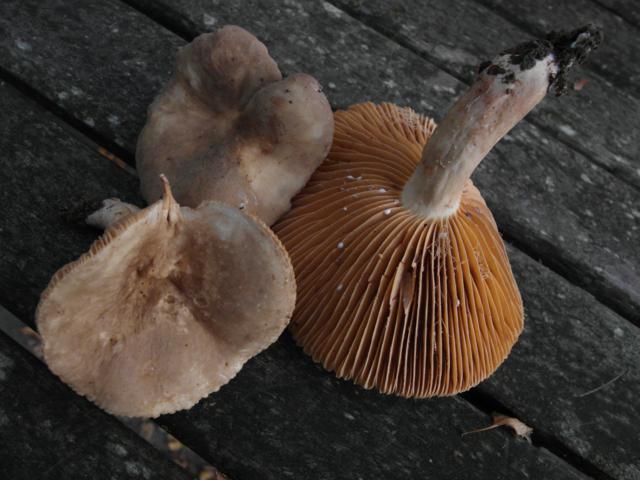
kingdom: Fungi
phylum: Basidiomycota
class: Agaricomycetes
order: Russulales
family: Russulaceae
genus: Lactarius
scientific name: Lactarius ruginosus
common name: gråbrun mælkehat
